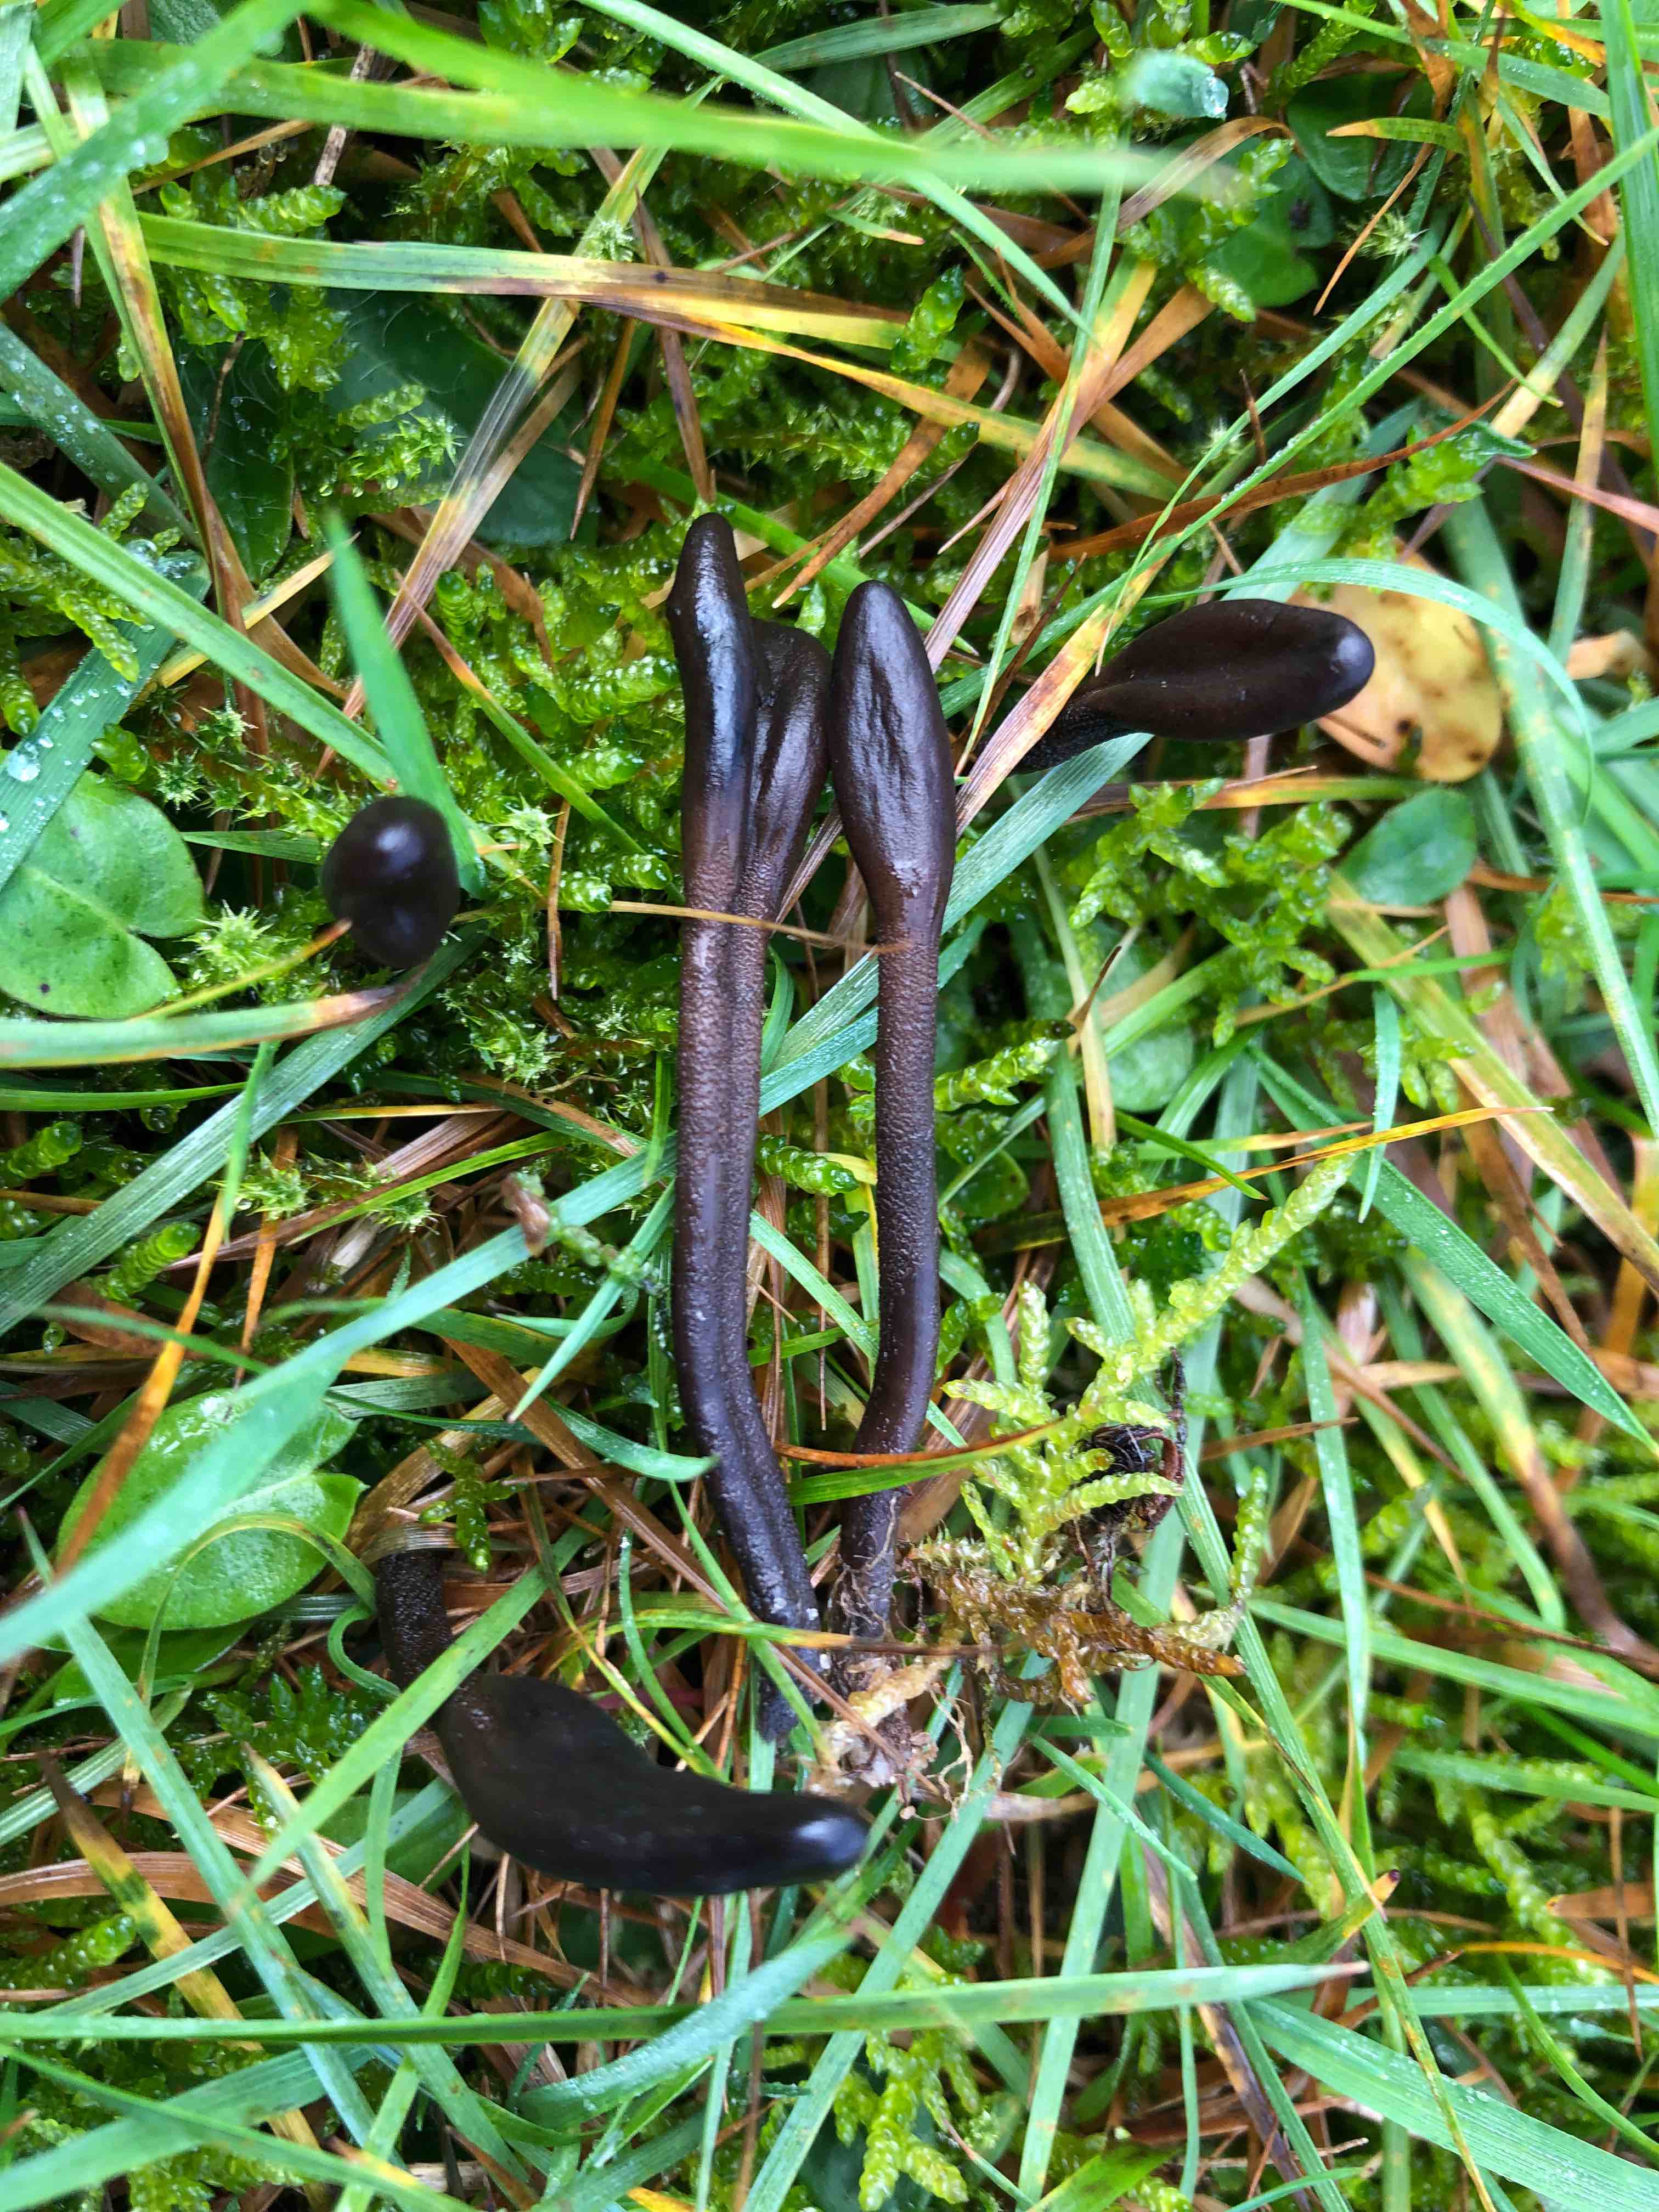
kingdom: Fungi
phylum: Ascomycota
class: Geoglossomycetes
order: Geoglossales
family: Geoglossaceae
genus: Geoglossum
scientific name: Geoglossum fallax
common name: småskællet jordtunge
